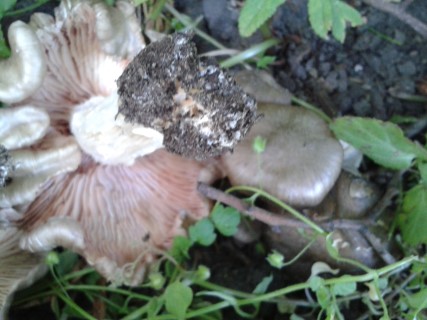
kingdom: Fungi
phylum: Basidiomycota
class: Agaricomycetes
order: Agaricales
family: Entolomataceae
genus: Entoloma
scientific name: Entoloma clypeatum
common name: flammet rødblad
